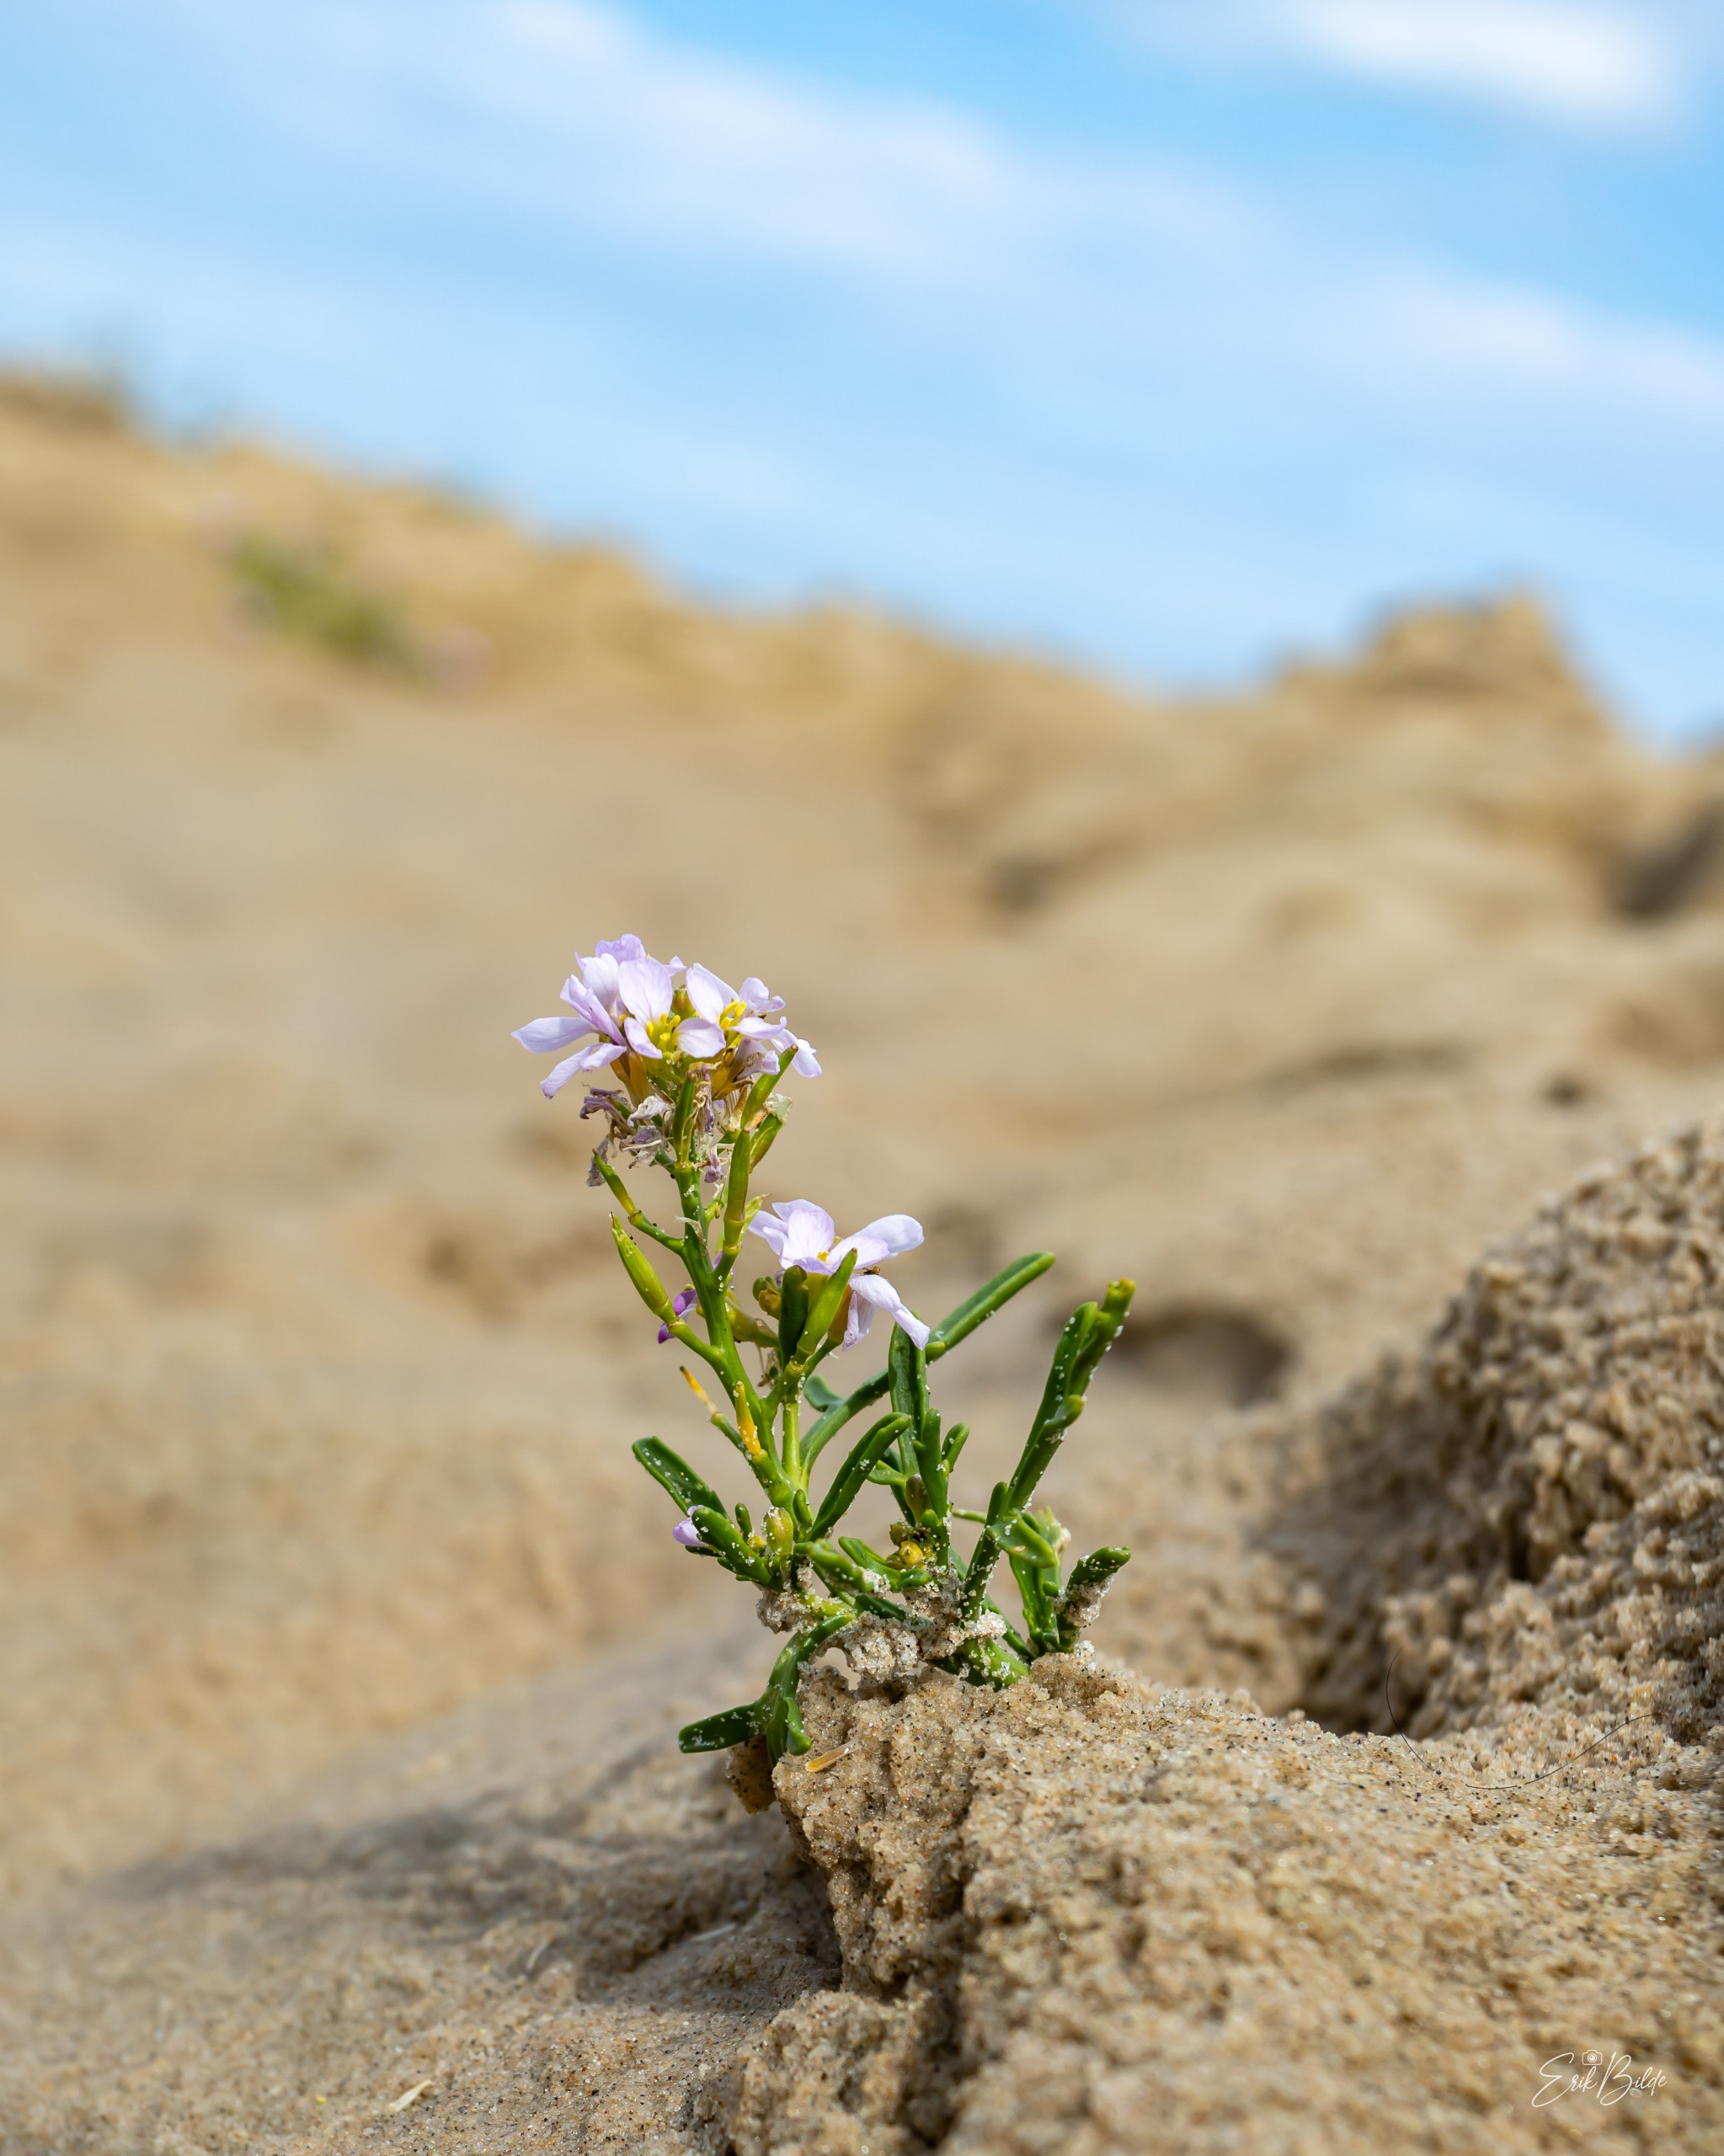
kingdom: Plantae
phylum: Tracheophyta
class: Magnoliopsida
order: Brassicales
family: Brassicaceae
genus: Cakile
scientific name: Cakile maritima
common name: Strandsennep
